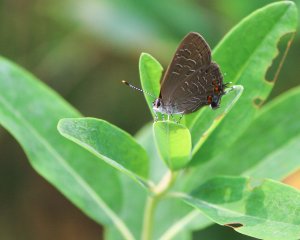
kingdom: Animalia
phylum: Arthropoda
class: Insecta
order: Lepidoptera
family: Lycaenidae
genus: Satyrium
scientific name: Satyrium liparops
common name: Striped Hairstreak
